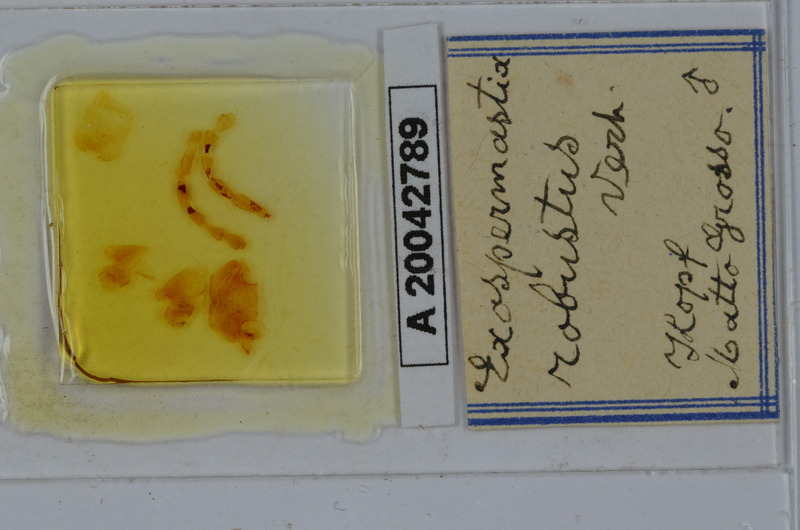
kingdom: Animalia
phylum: Arthropoda
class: Diplopoda
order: Spirostreptida
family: Spirostreptidae
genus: Urostreptus
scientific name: Urostreptus robustus
